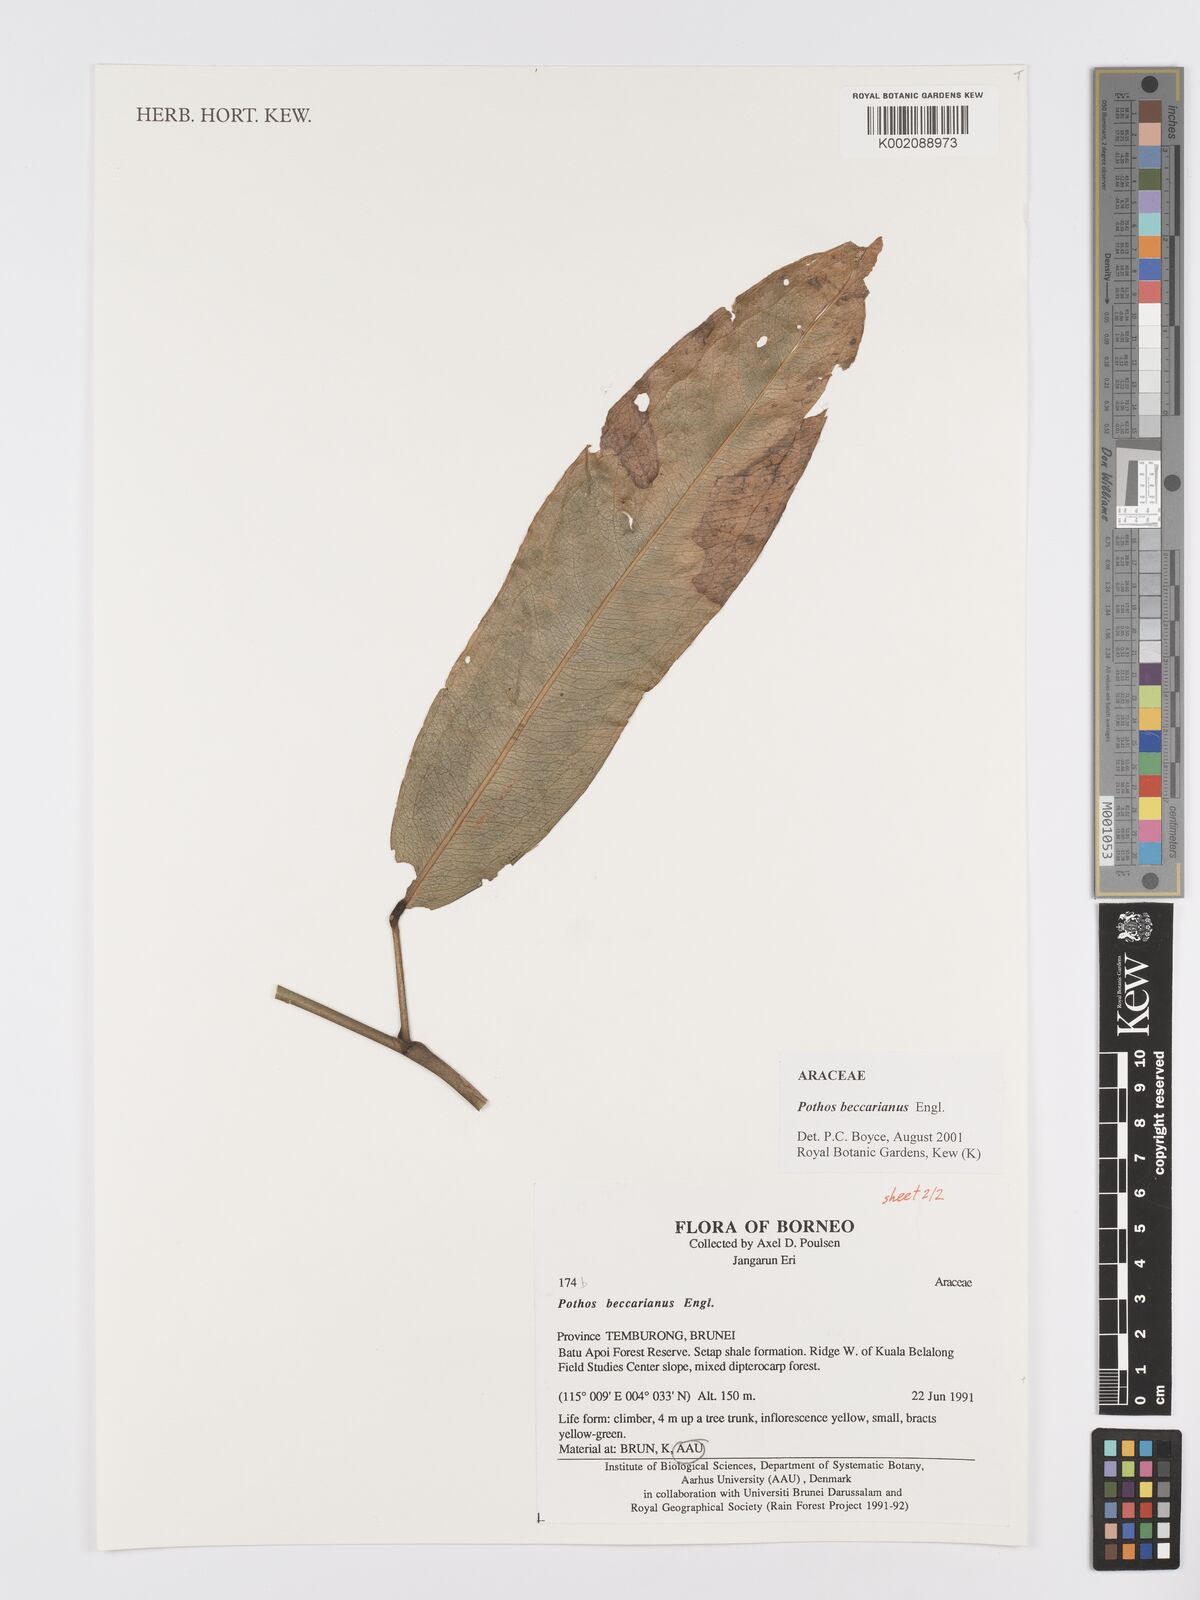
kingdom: Plantae
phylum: Tracheophyta
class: Liliopsida
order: Alismatales
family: Araceae
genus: Pothos
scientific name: Pothos beccarianus
